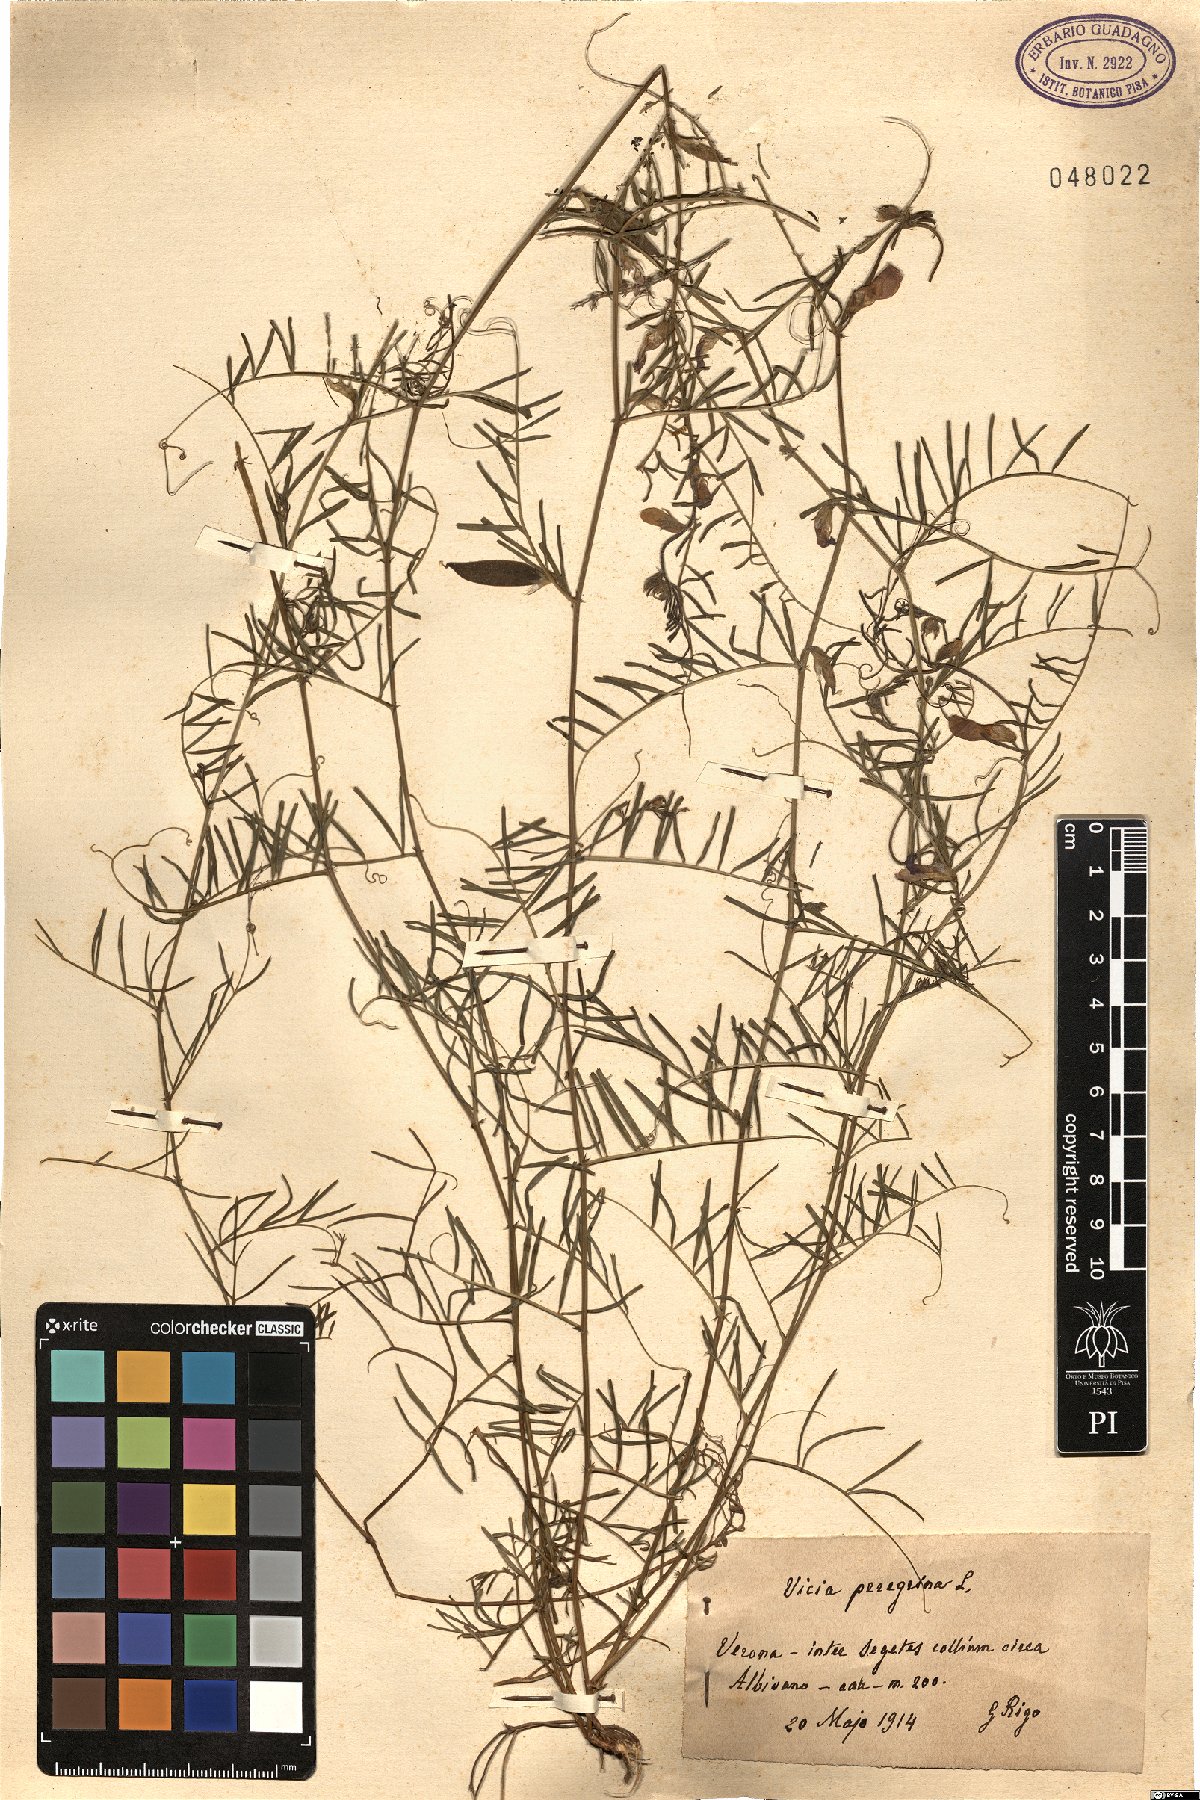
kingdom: Plantae
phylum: Tracheophyta
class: Magnoliopsida
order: Fabales
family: Fabaceae
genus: Vicia
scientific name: Vicia peregrina
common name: Broad-pod vetch
